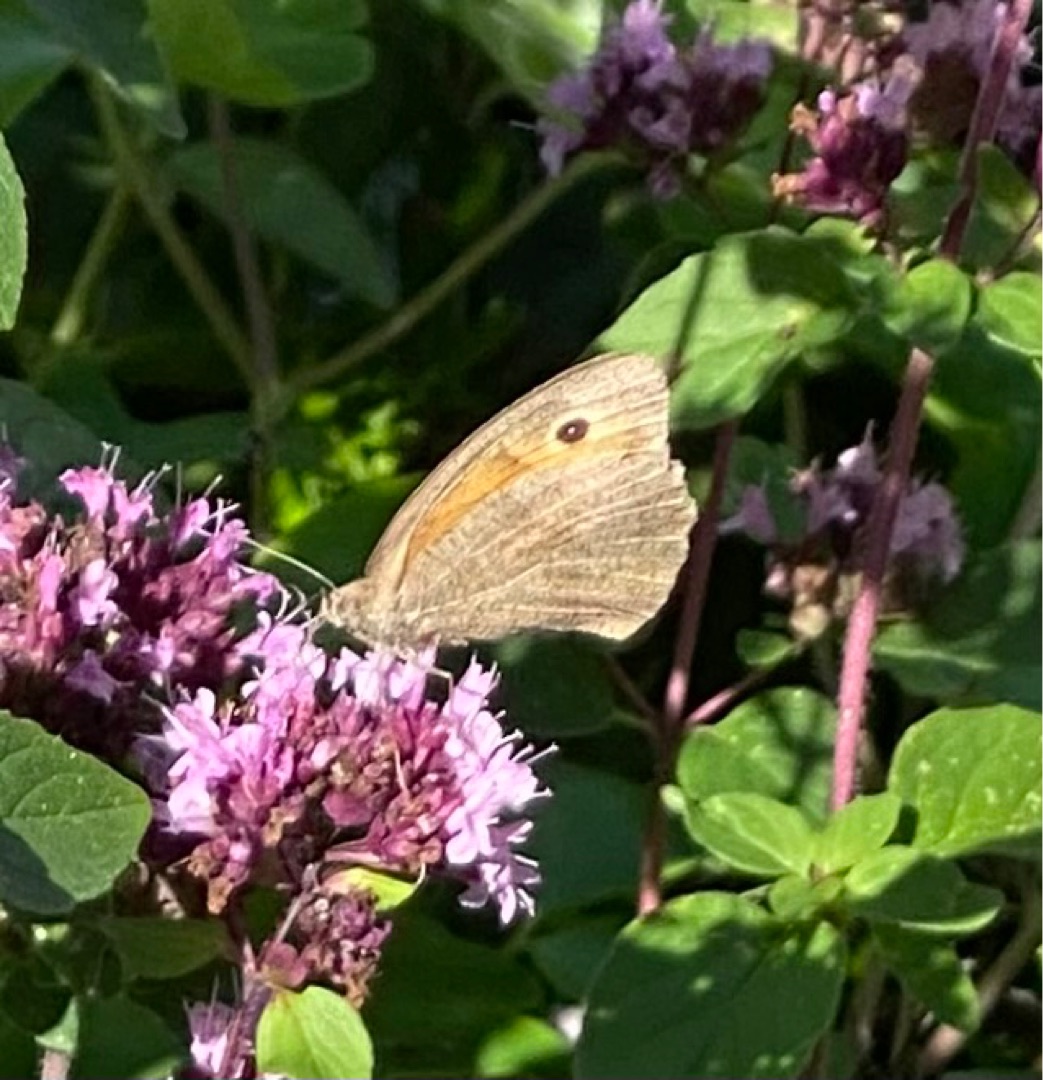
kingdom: Animalia
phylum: Arthropoda
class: Insecta
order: Lepidoptera
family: Nymphalidae
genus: Maniola
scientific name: Maniola jurtina
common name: Græsrandøje
